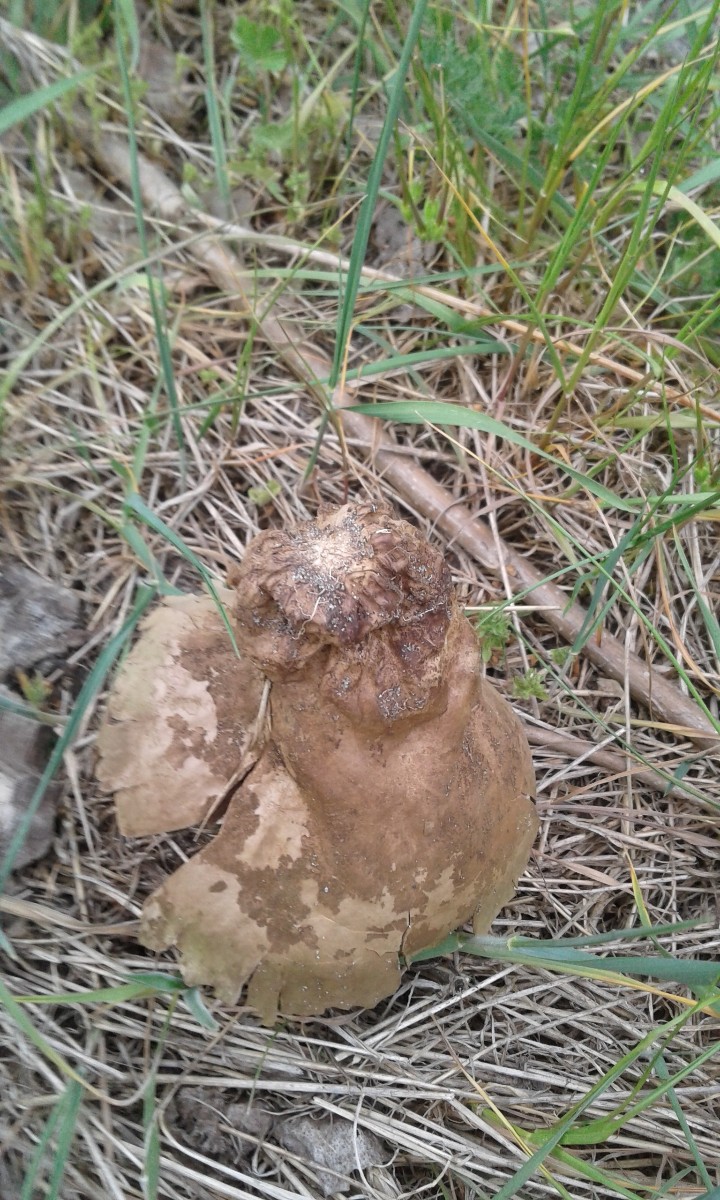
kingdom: Fungi
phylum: Basidiomycota
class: Agaricomycetes
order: Agaricales
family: Lycoperdaceae
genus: Bovistella
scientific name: Bovistella utriformis
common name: skællet støvbold
